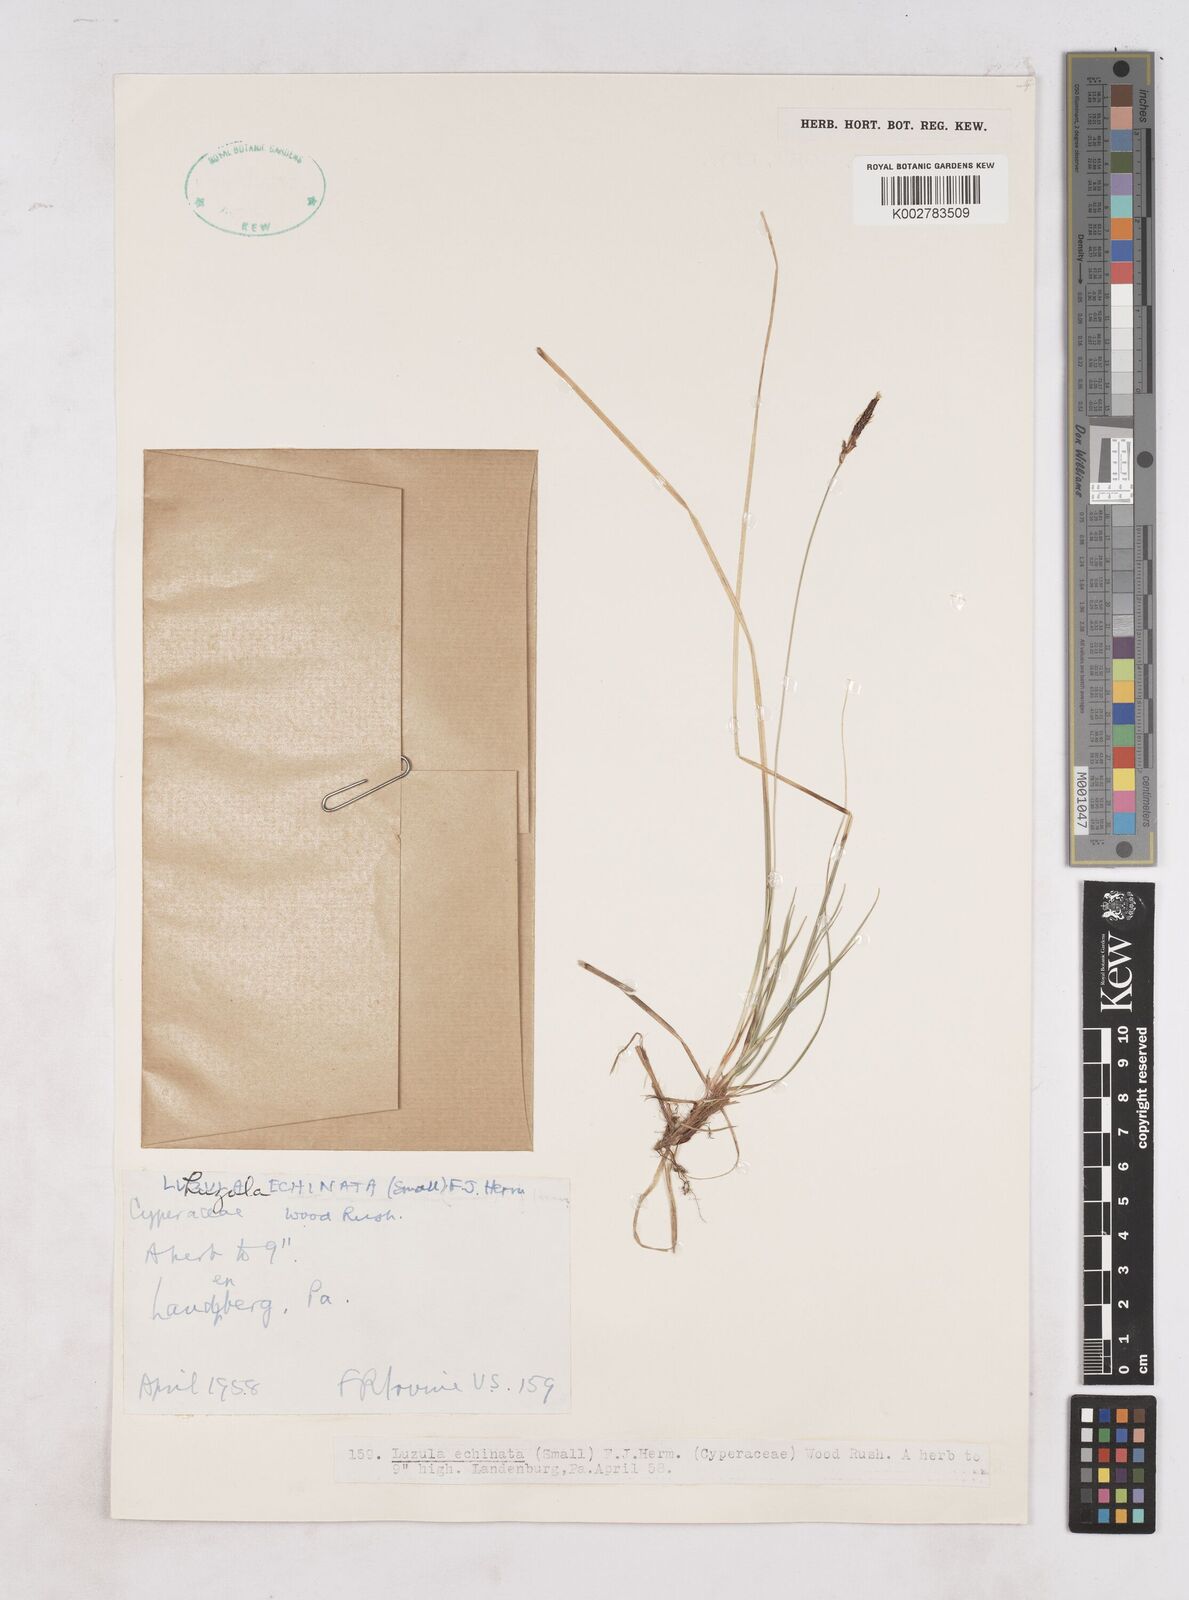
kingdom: Plantae
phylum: Tracheophyta
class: Liliopsida
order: Poales
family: Juncaceae
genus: Luzula
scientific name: Luzula echinata
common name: Hedgehog woodrush
